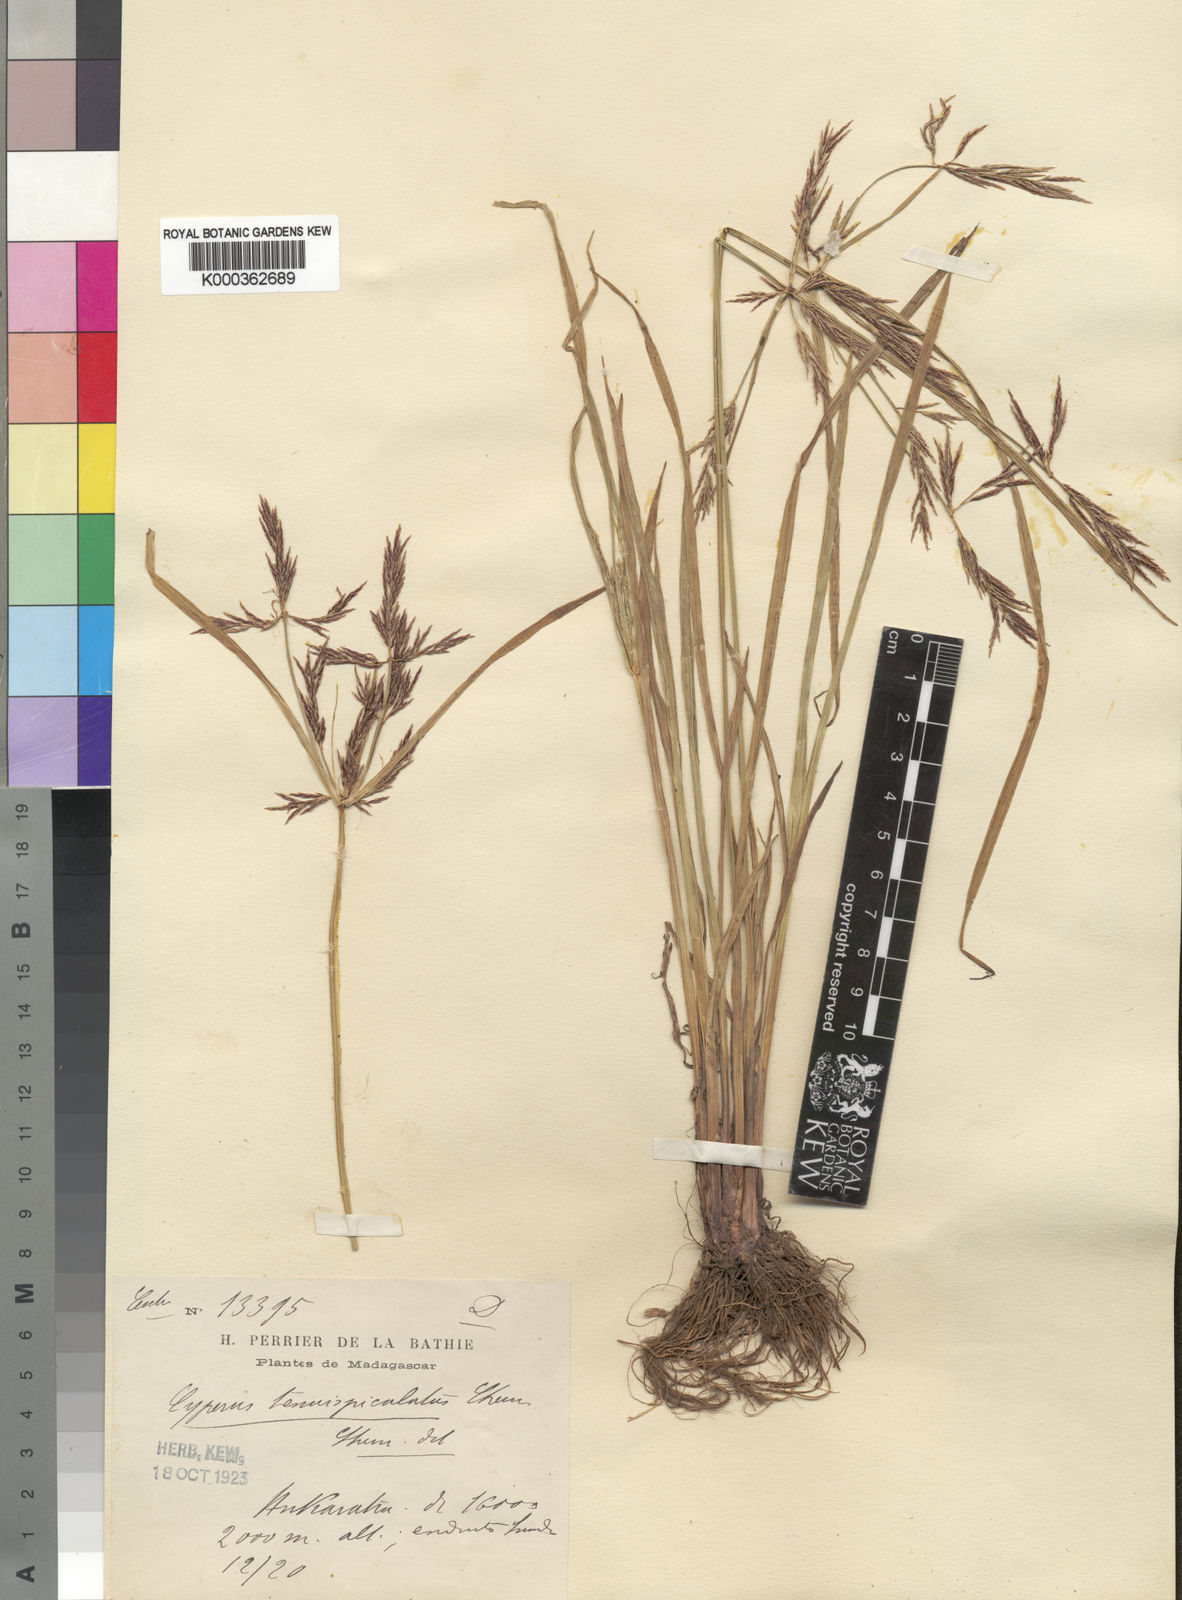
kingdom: Plantae
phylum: Tracheophyta
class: Liliopsida
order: Poales
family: Cyperaceae
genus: Cyperus
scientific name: Cyperus tenuispiculatus
